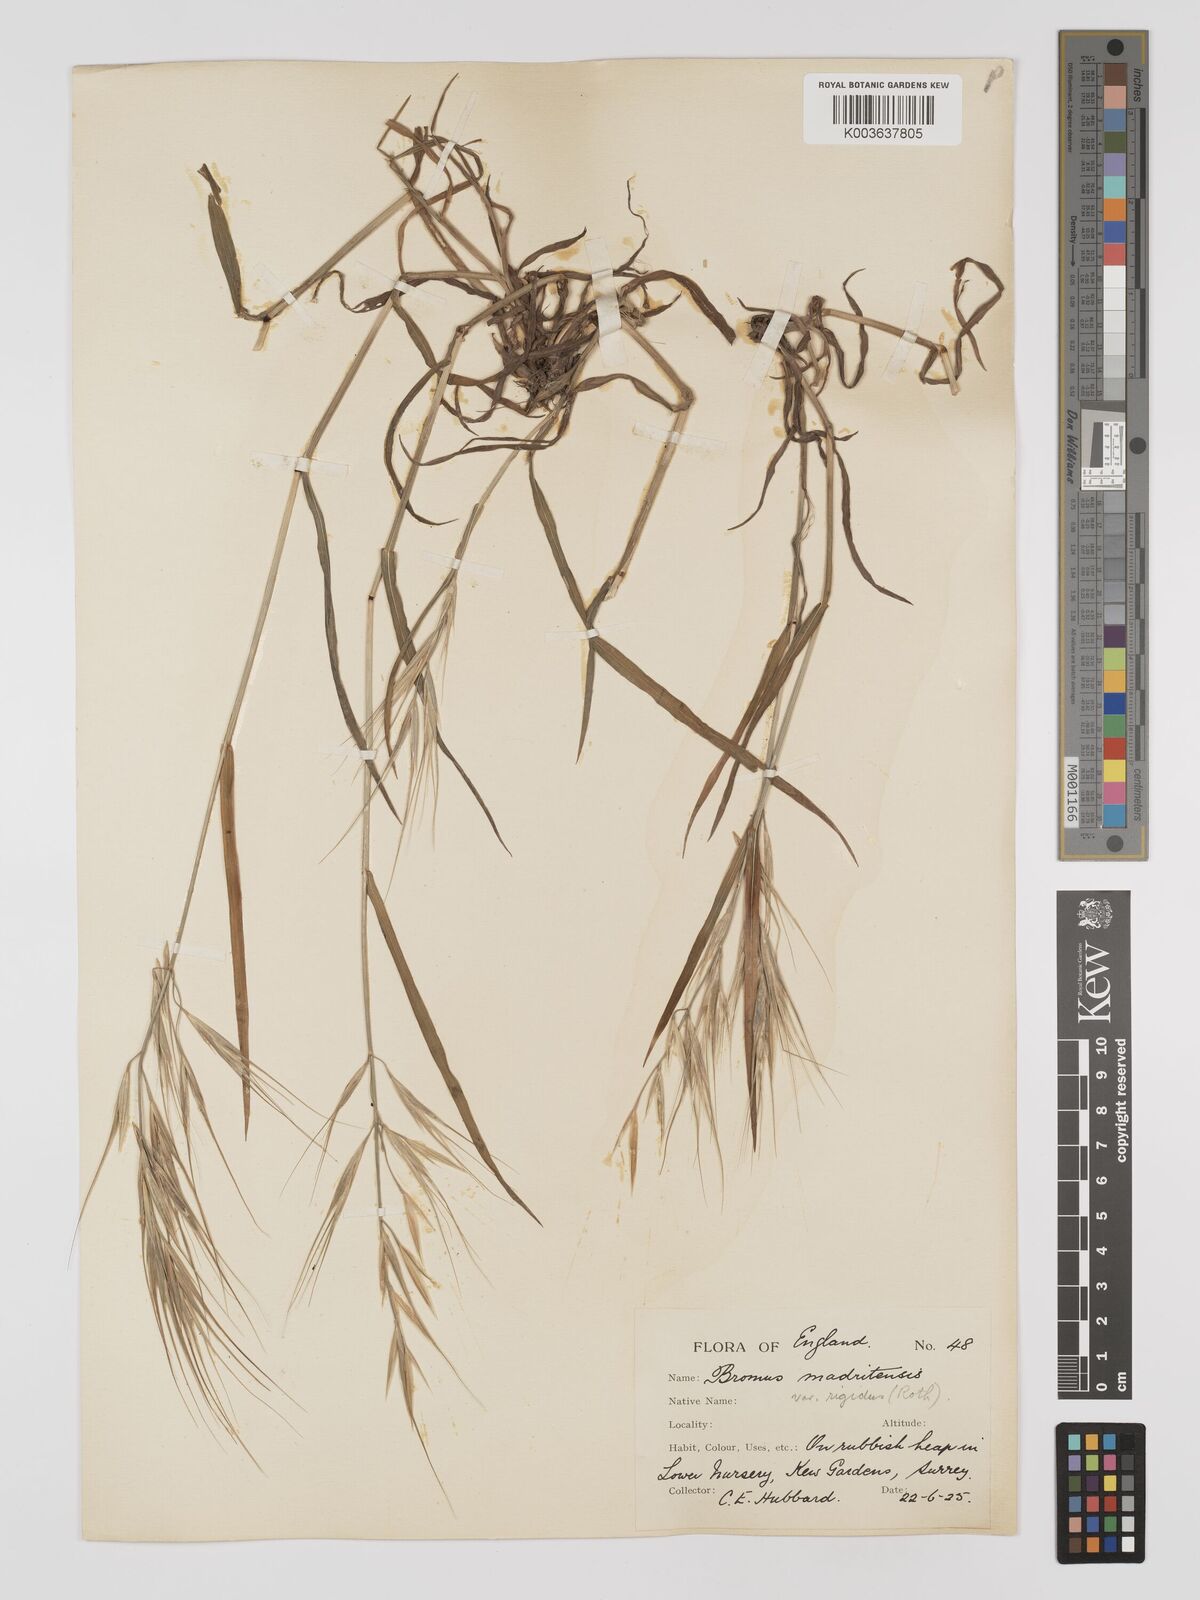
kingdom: Plantae
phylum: Tracheophyta
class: Liliopsida
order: Poales
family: Poaceae
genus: Bromus
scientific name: Bromus
